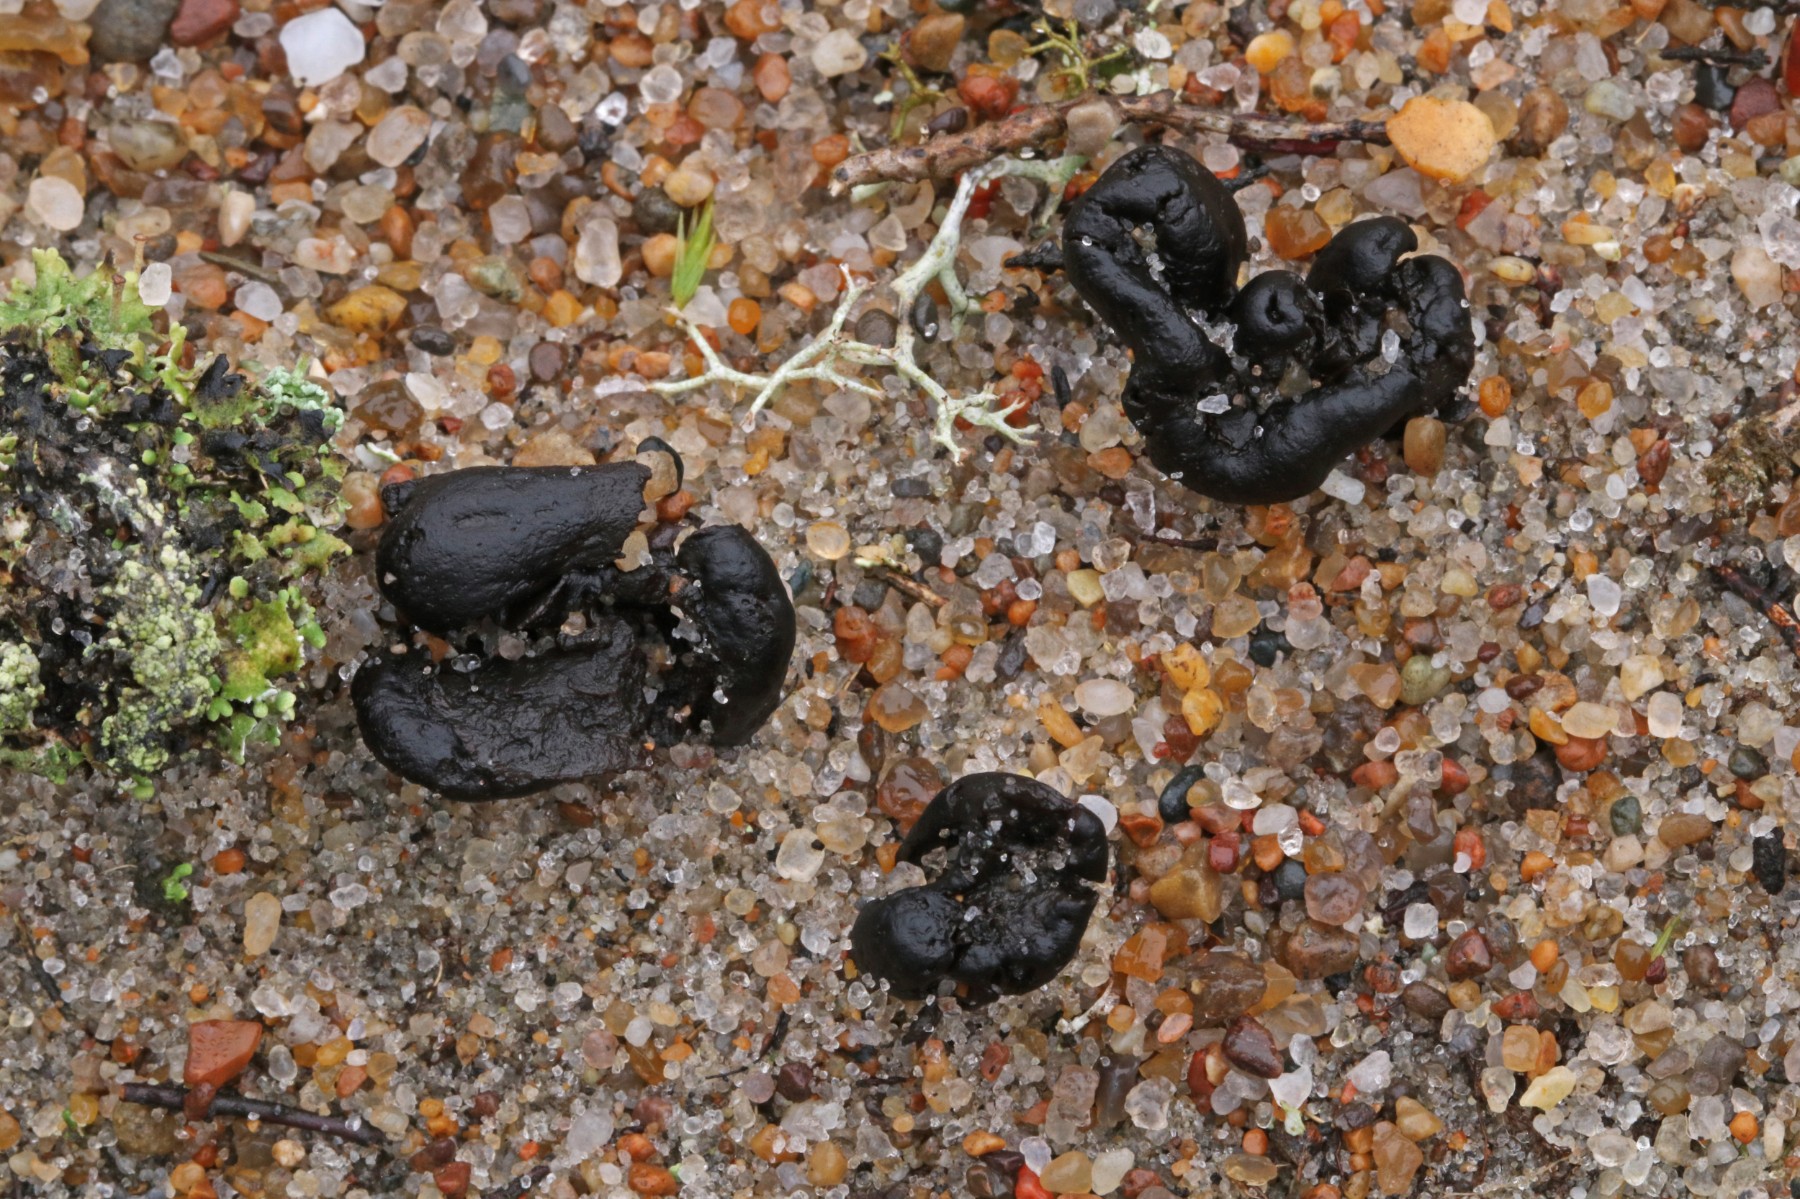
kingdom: Fungi
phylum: Ascomycota
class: Geoglossomycetes
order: Geoglossales
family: Geoglossaceae
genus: Sabuloglossum
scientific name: Sabuloglossum arenarium
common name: klit-jordtunge
